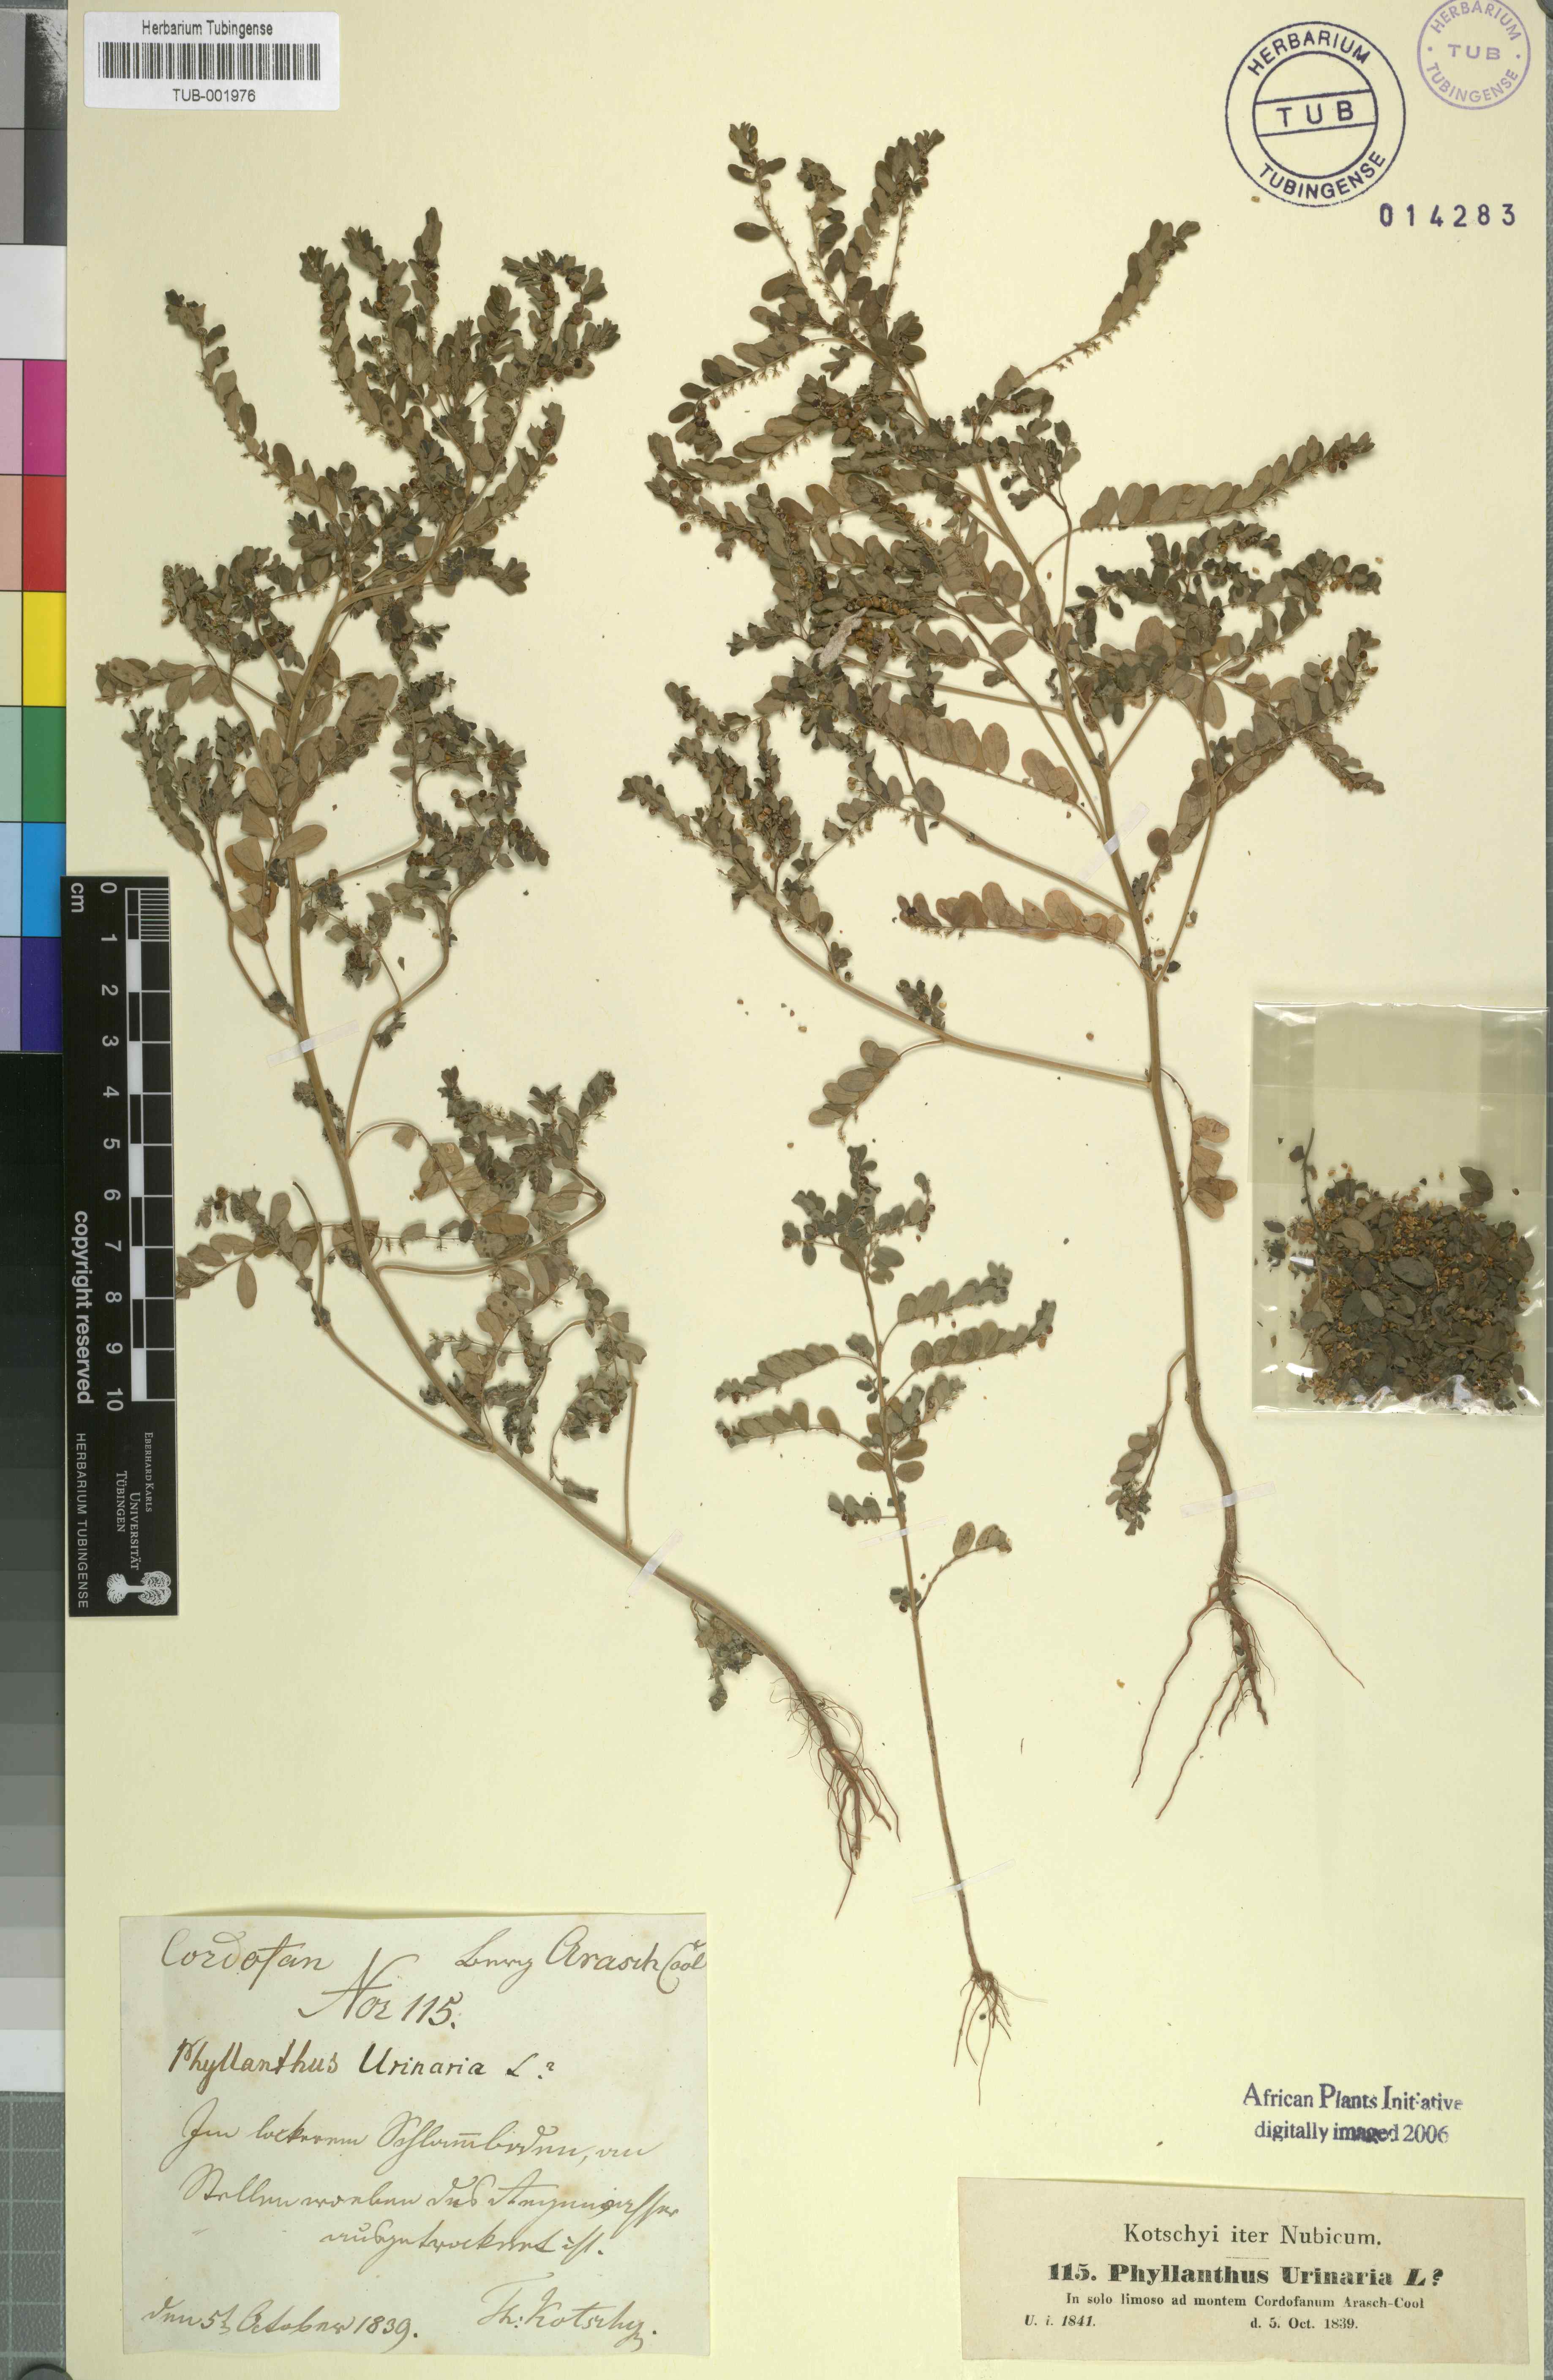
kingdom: Plantae
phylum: Tracheophyta
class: Magnoliopsida
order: Malpighiales
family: Phyllanthaceae
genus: Phyllanthus
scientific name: Phyllanthus urinaria
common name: Chamber bitter
